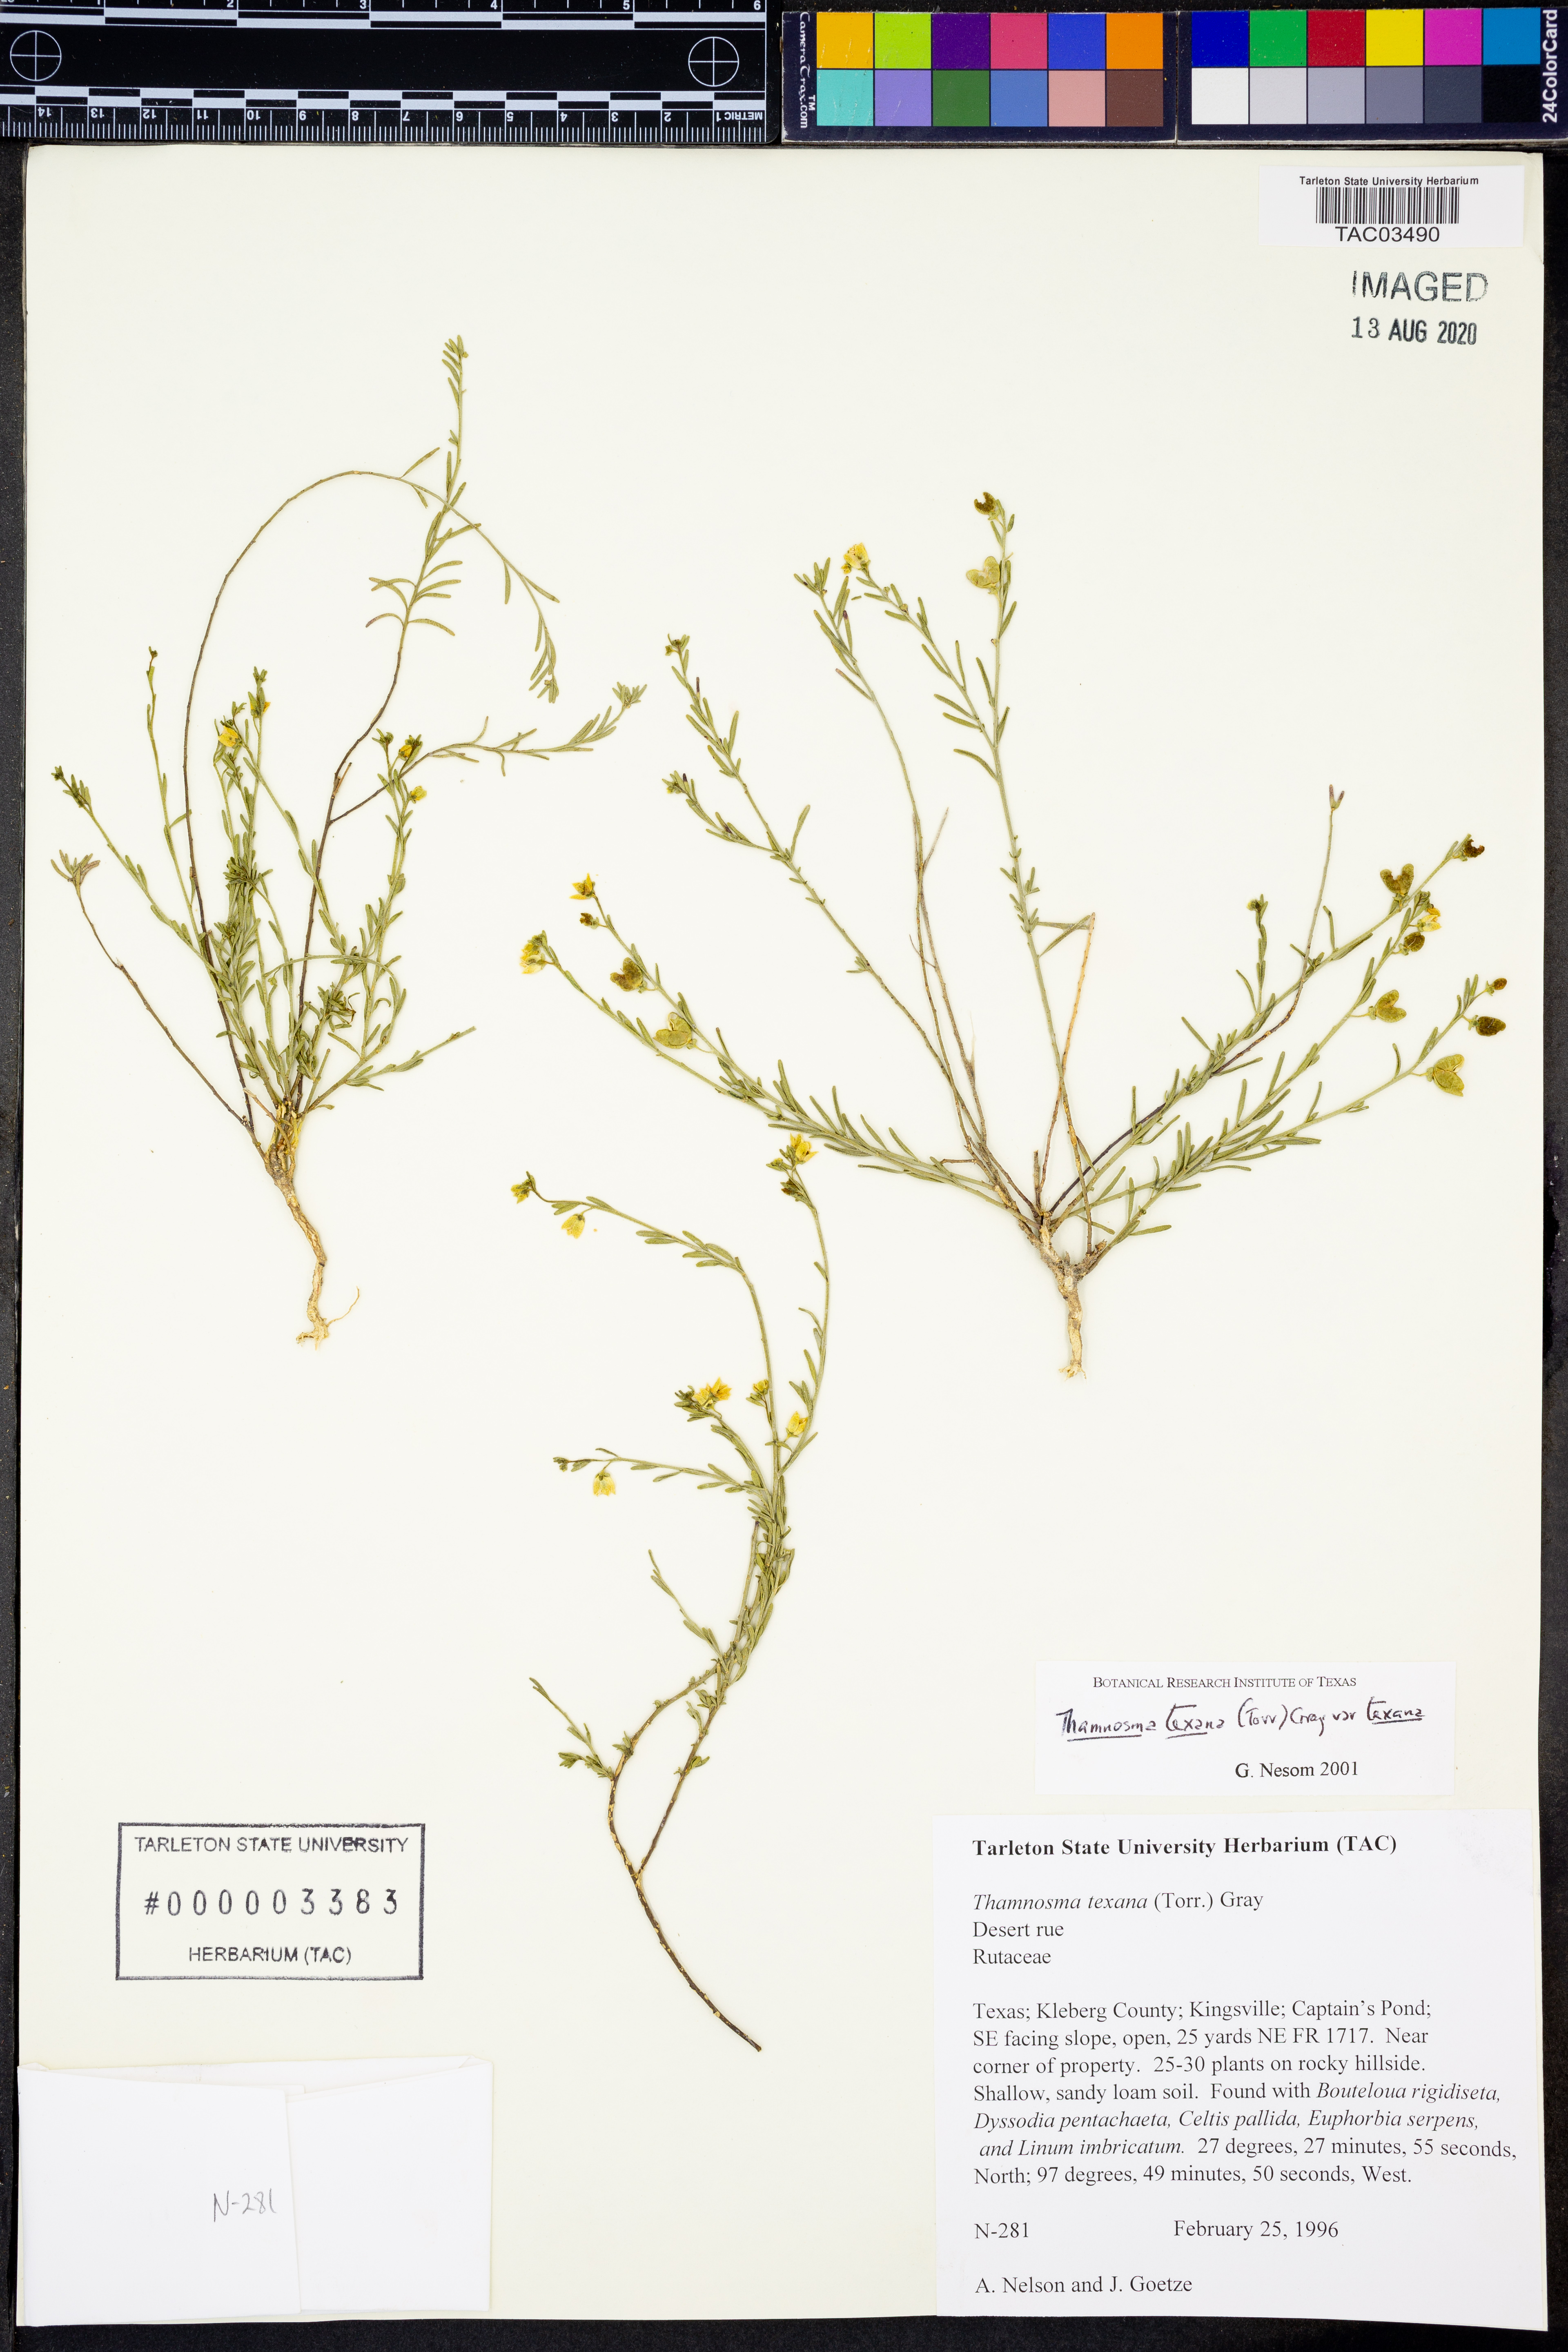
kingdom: Plantae
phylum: Tracheophyta
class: Magnoliopsida
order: Sapindales
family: Rutaceae
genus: Thamnosma
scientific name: Thamnosma texana
